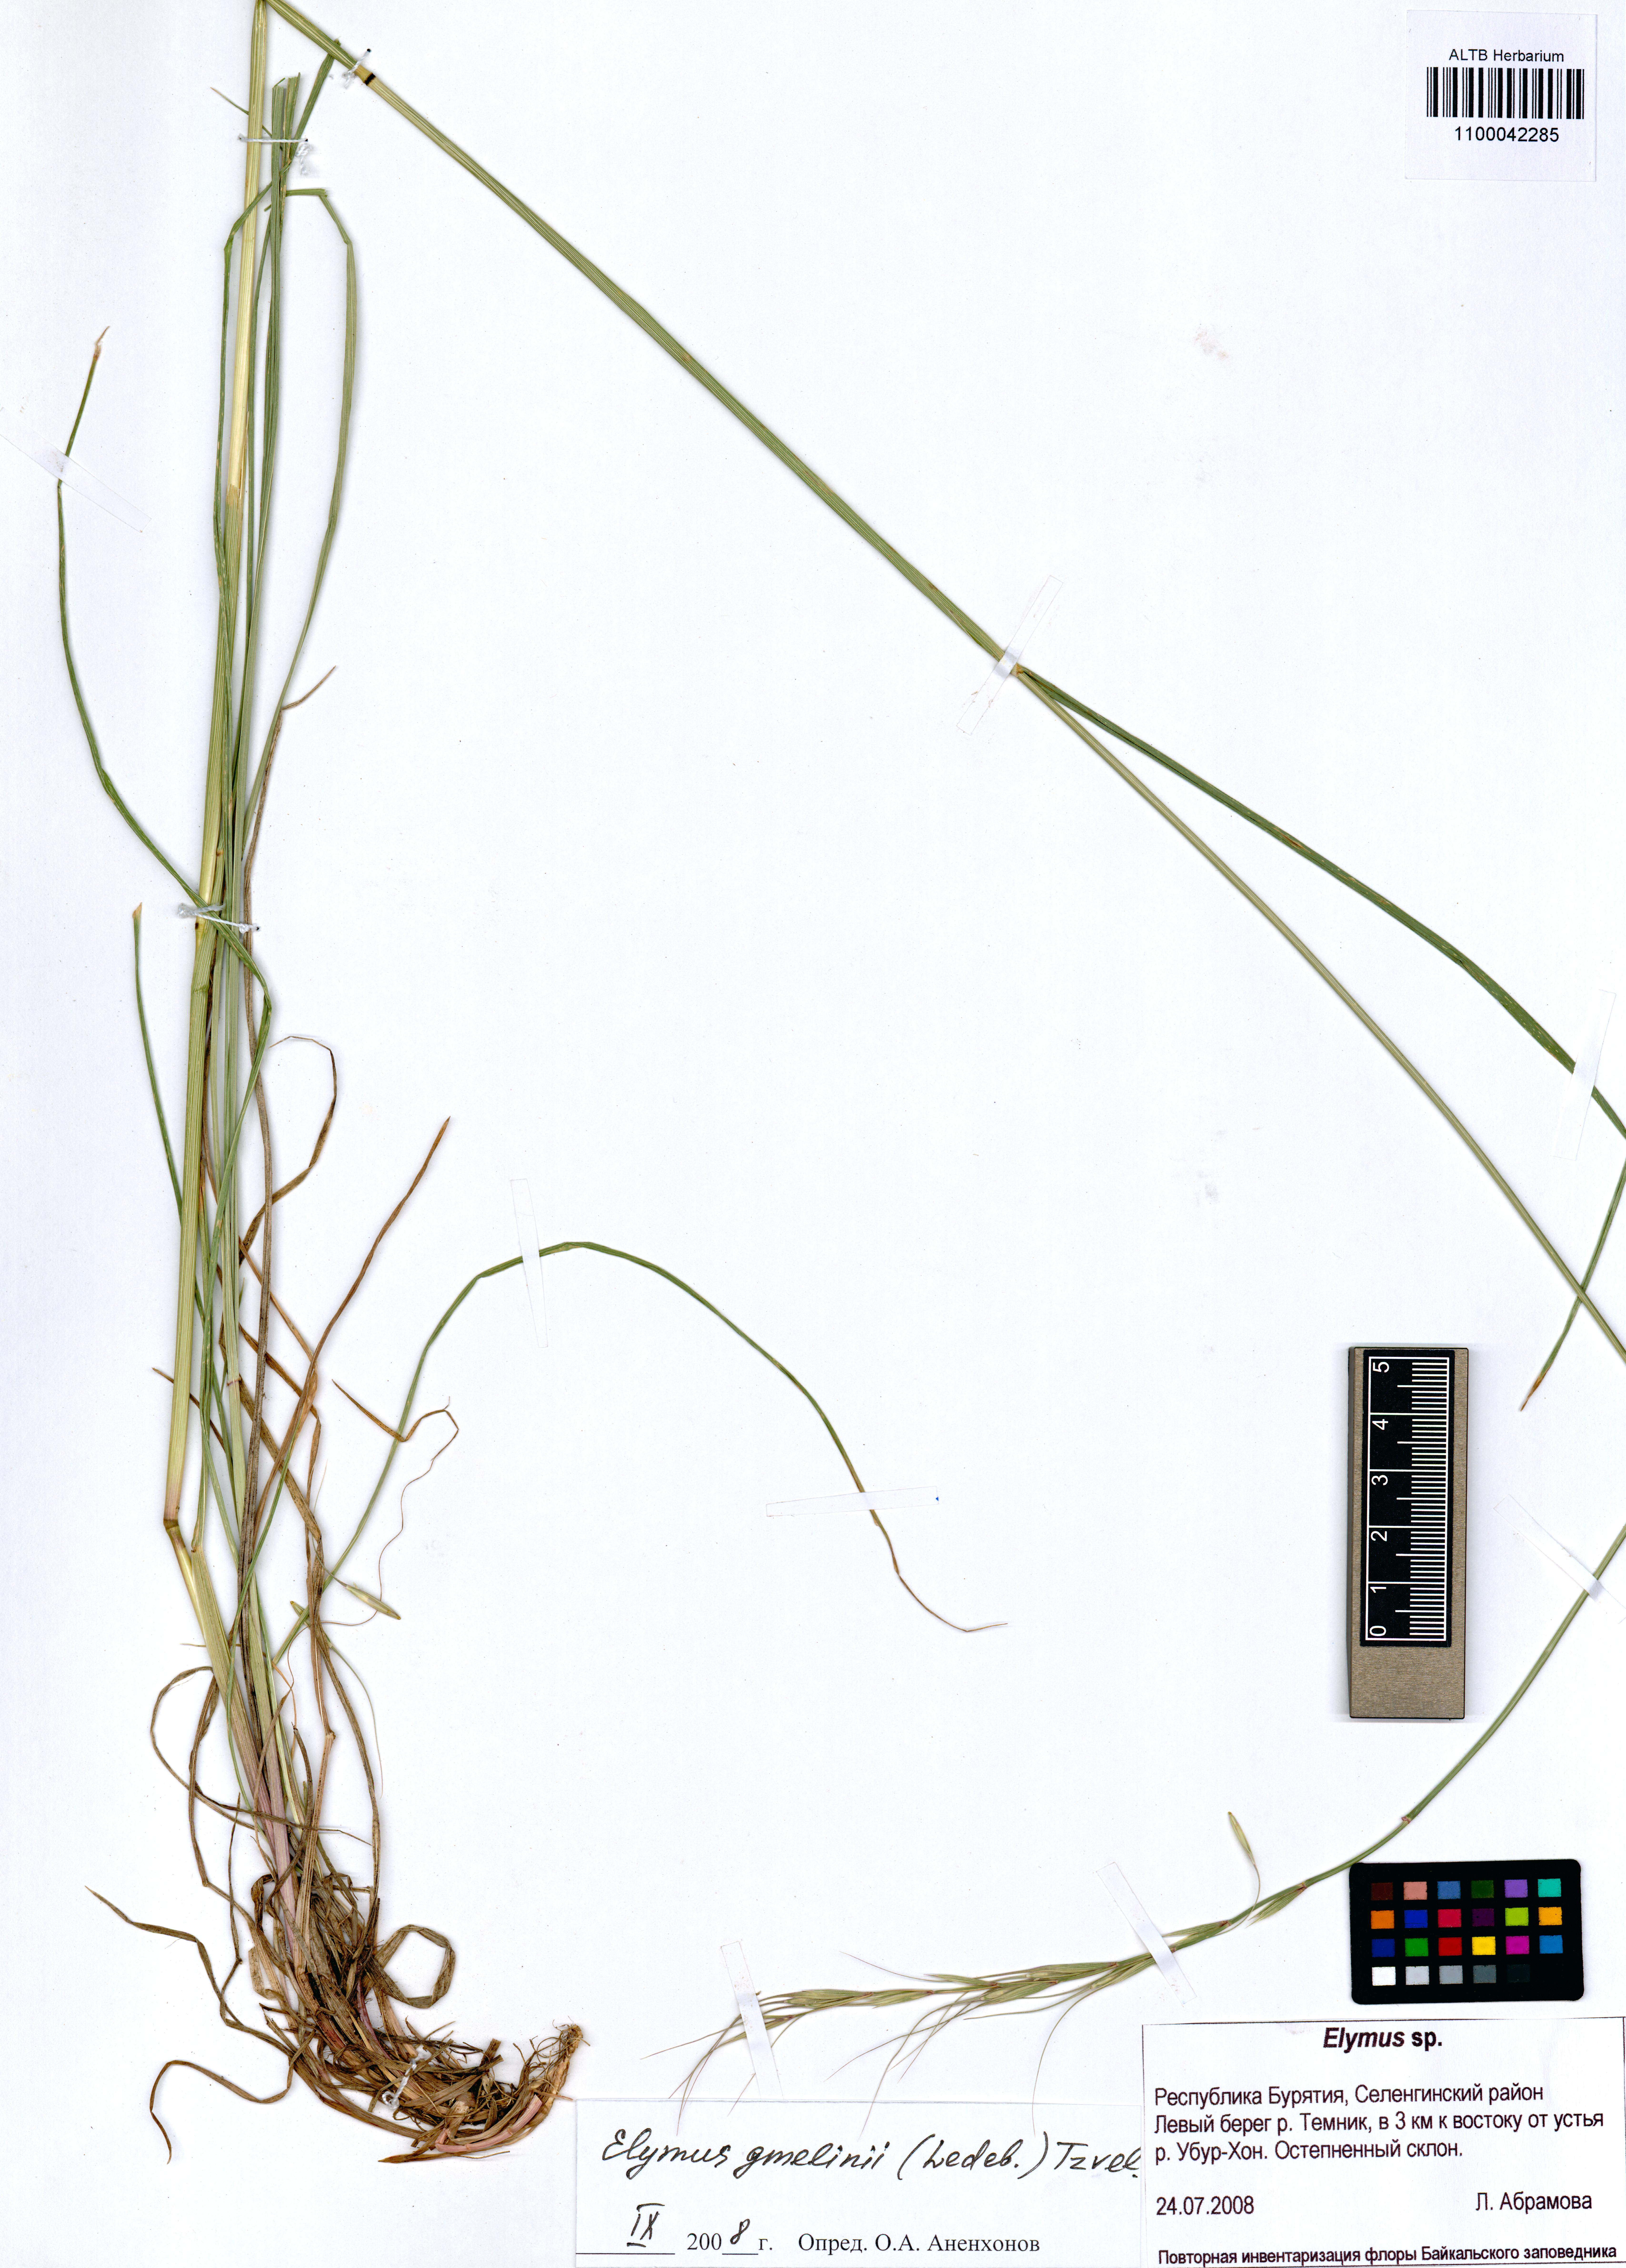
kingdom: Plantae
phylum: Tracheophyta
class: Liliopsida
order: Poales
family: Poaceae
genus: Elymus
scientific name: Elymus gmelinii
